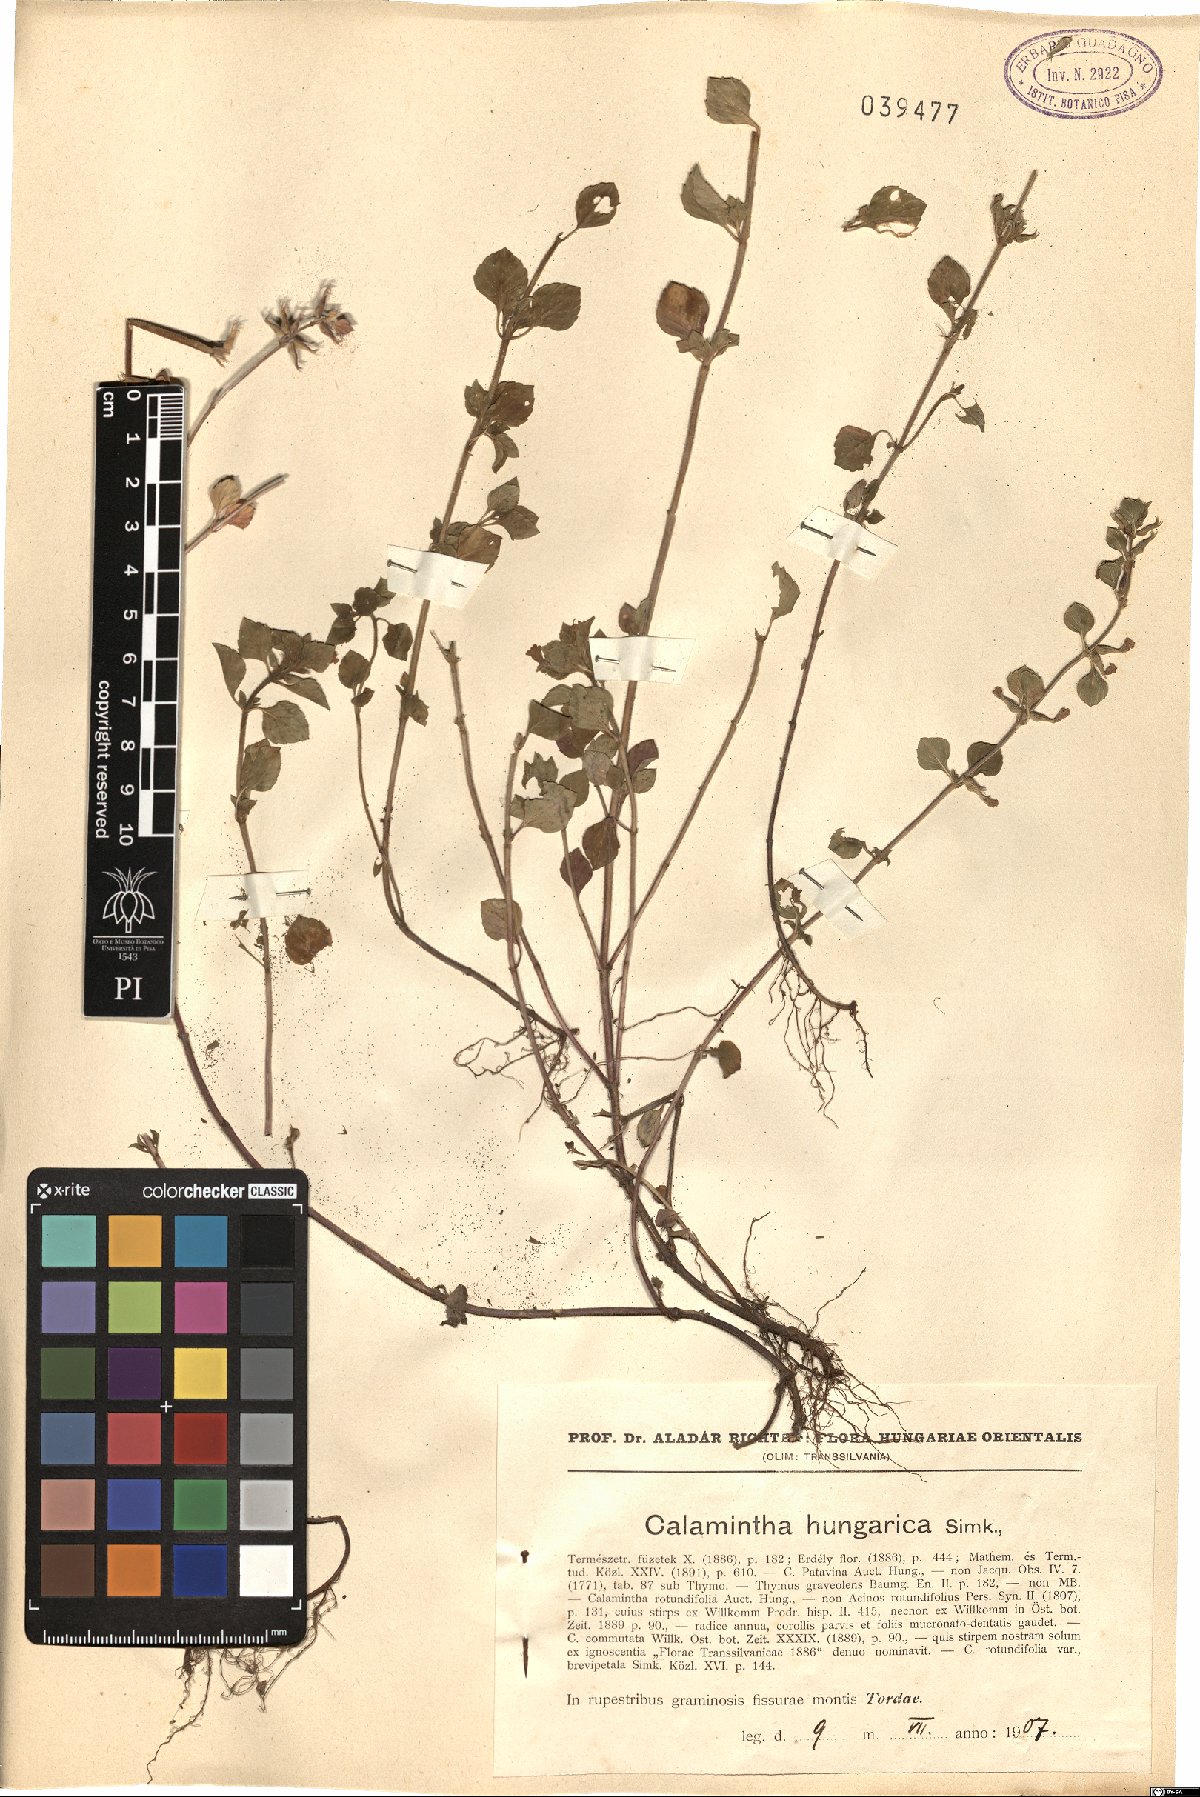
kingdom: Plantae
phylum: Tracheophyta
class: Magnoliopsida
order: Lamiales
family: Lamiaceae
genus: Clinopodium
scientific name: Clinopodium alpinum
